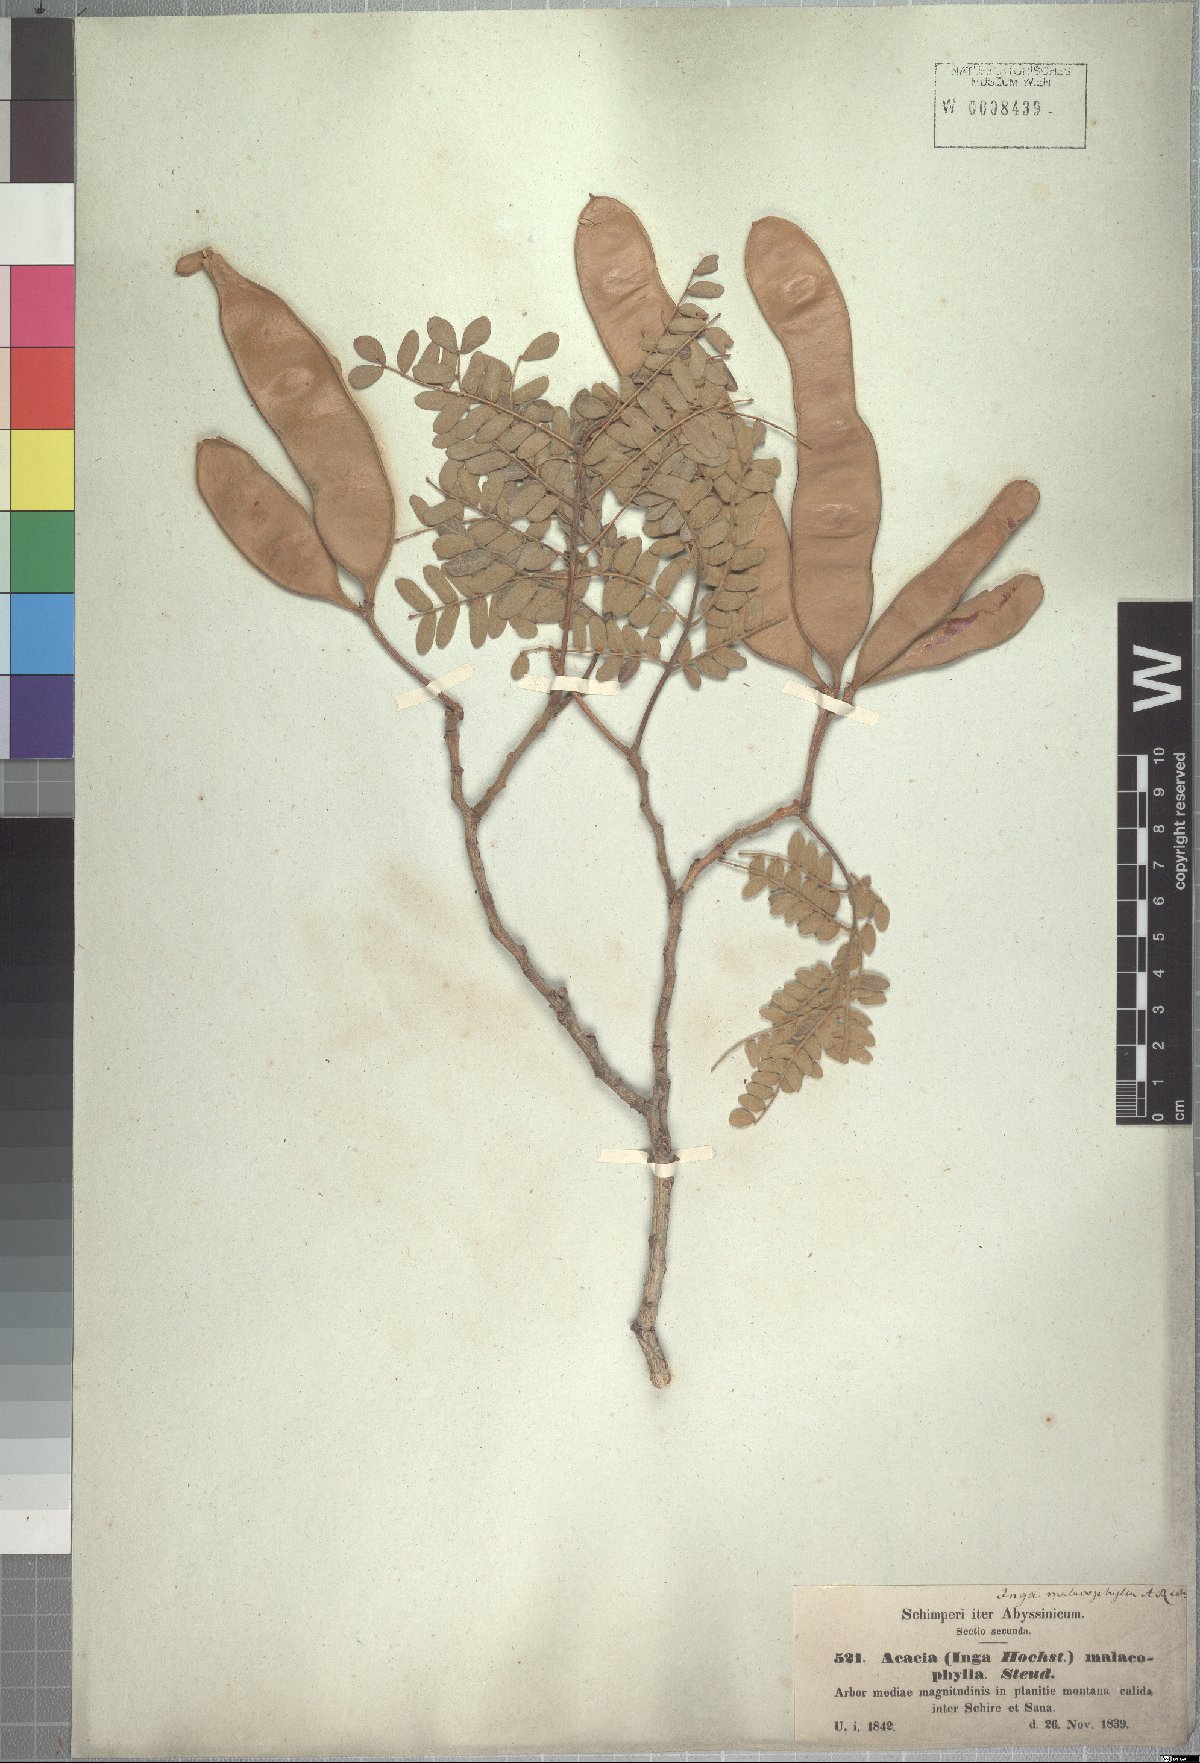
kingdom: Plantae
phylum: Tracheophyta
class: Magnoliopsida
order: Fabales
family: Fabaceae
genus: Albizia
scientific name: Albizia malacophylla
